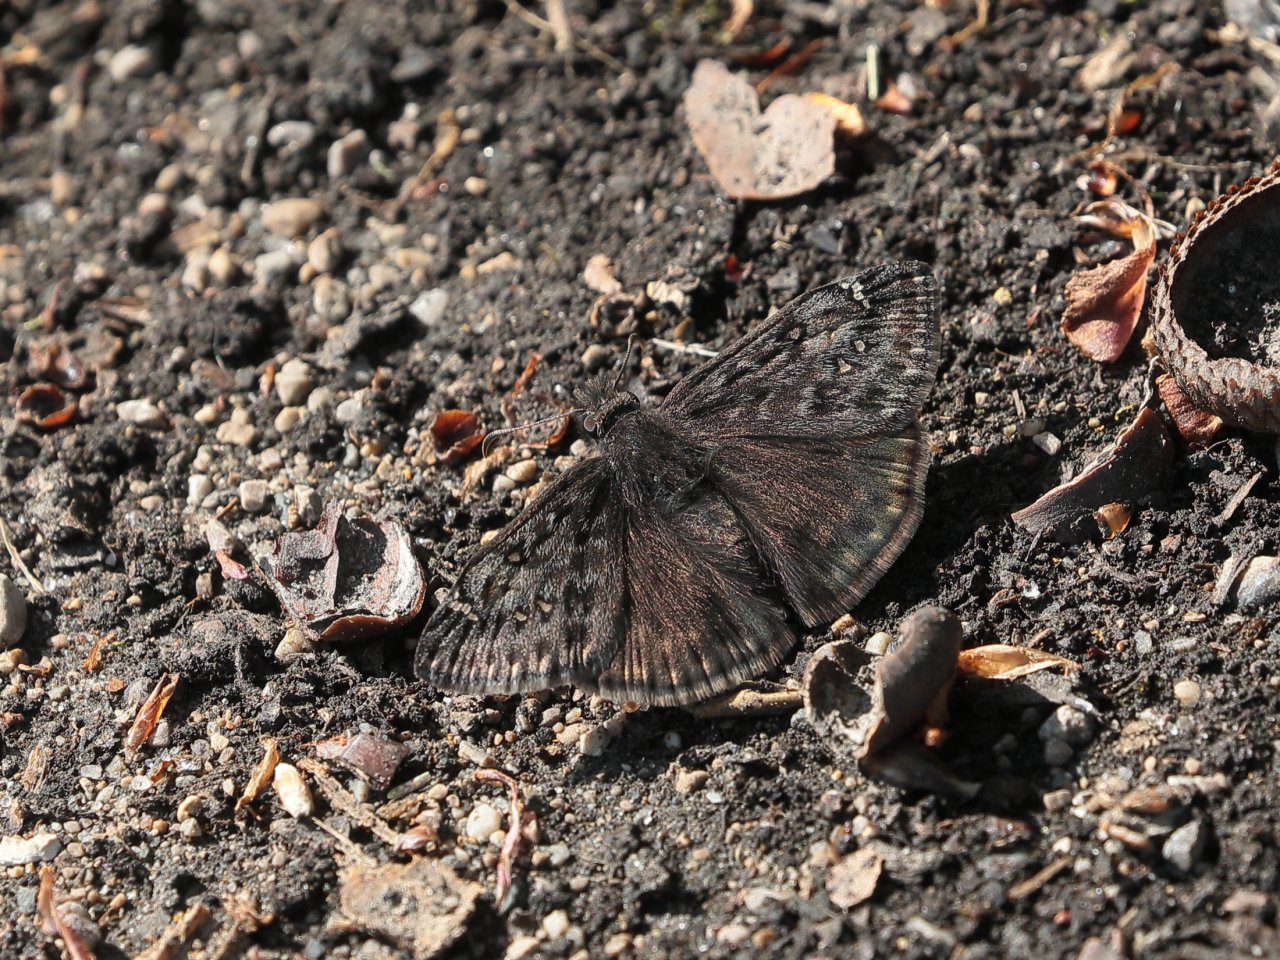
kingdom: Animalia
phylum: Arthropoda
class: Insecta
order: Lepidoptera
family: Hesperiidae
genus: Gesta
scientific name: Gesta
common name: Juvenal's Duskywing
